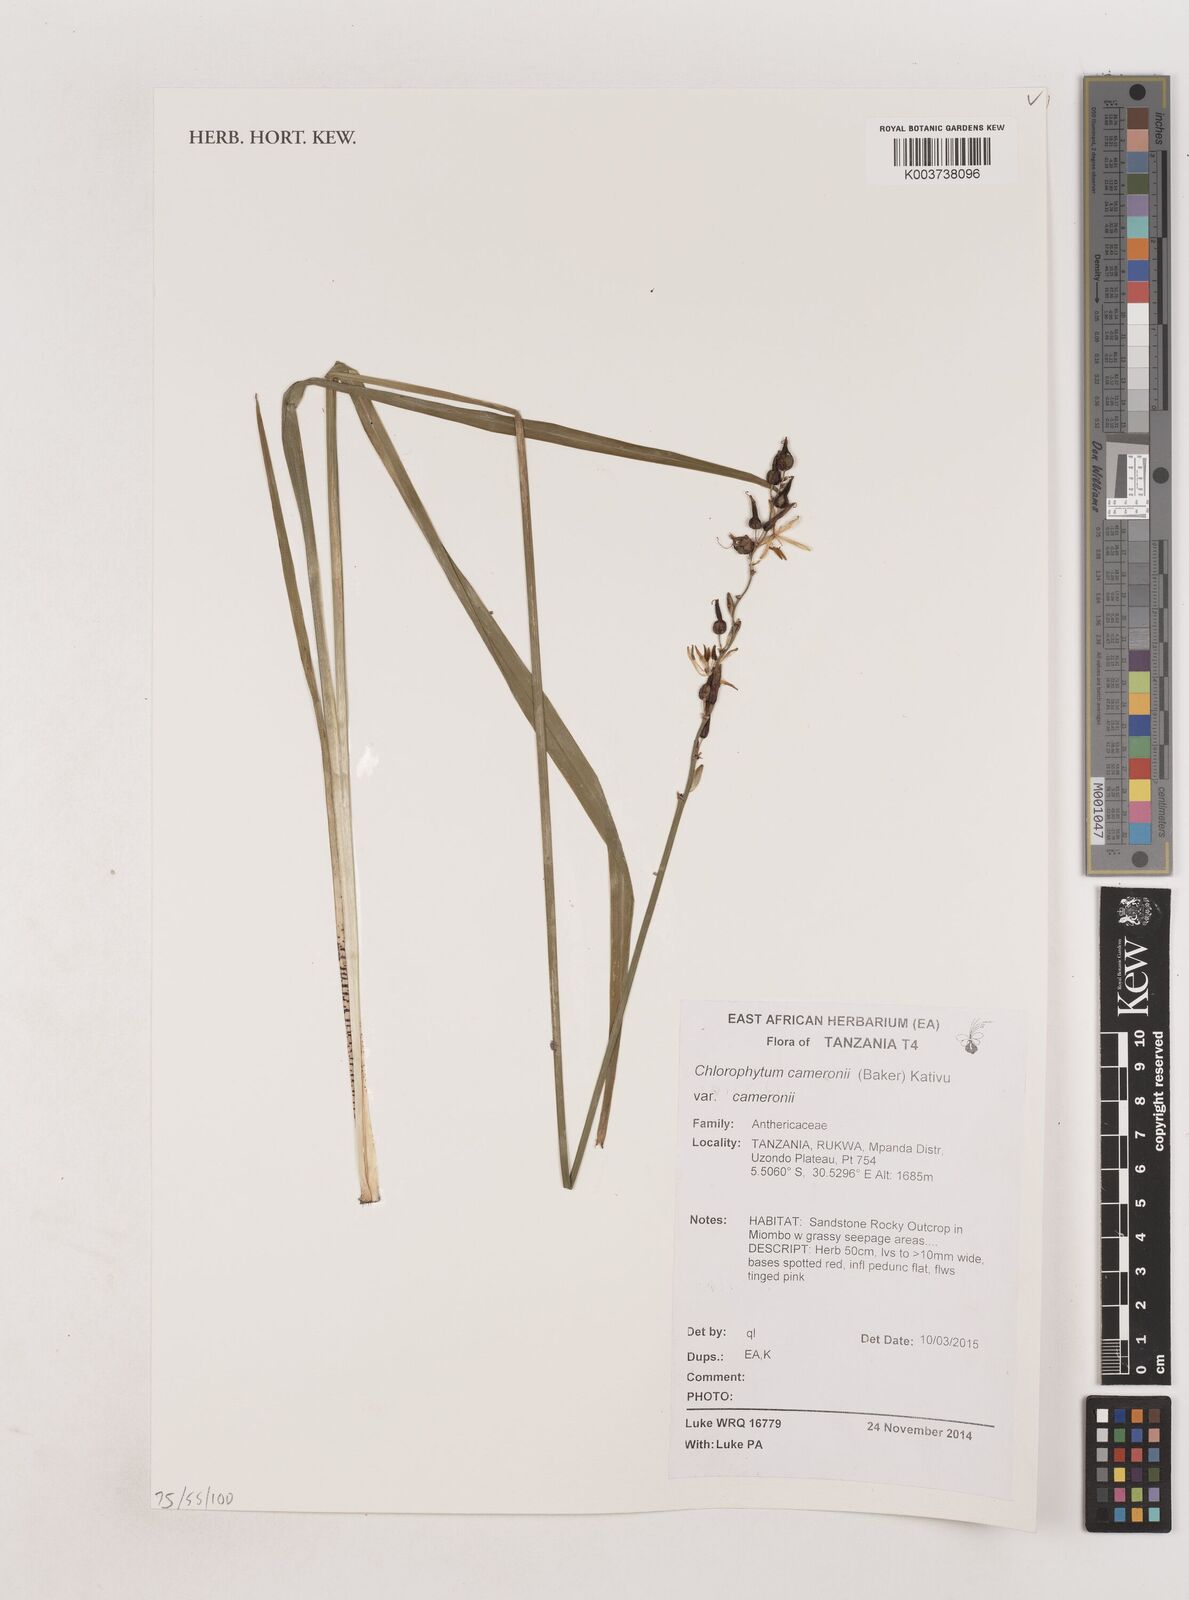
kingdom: Plantae
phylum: Tracheophyta
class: Liliopsida
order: Asparagales
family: Asparagaceae
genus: Chlorophytum
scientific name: Chlorophytum cameronii
